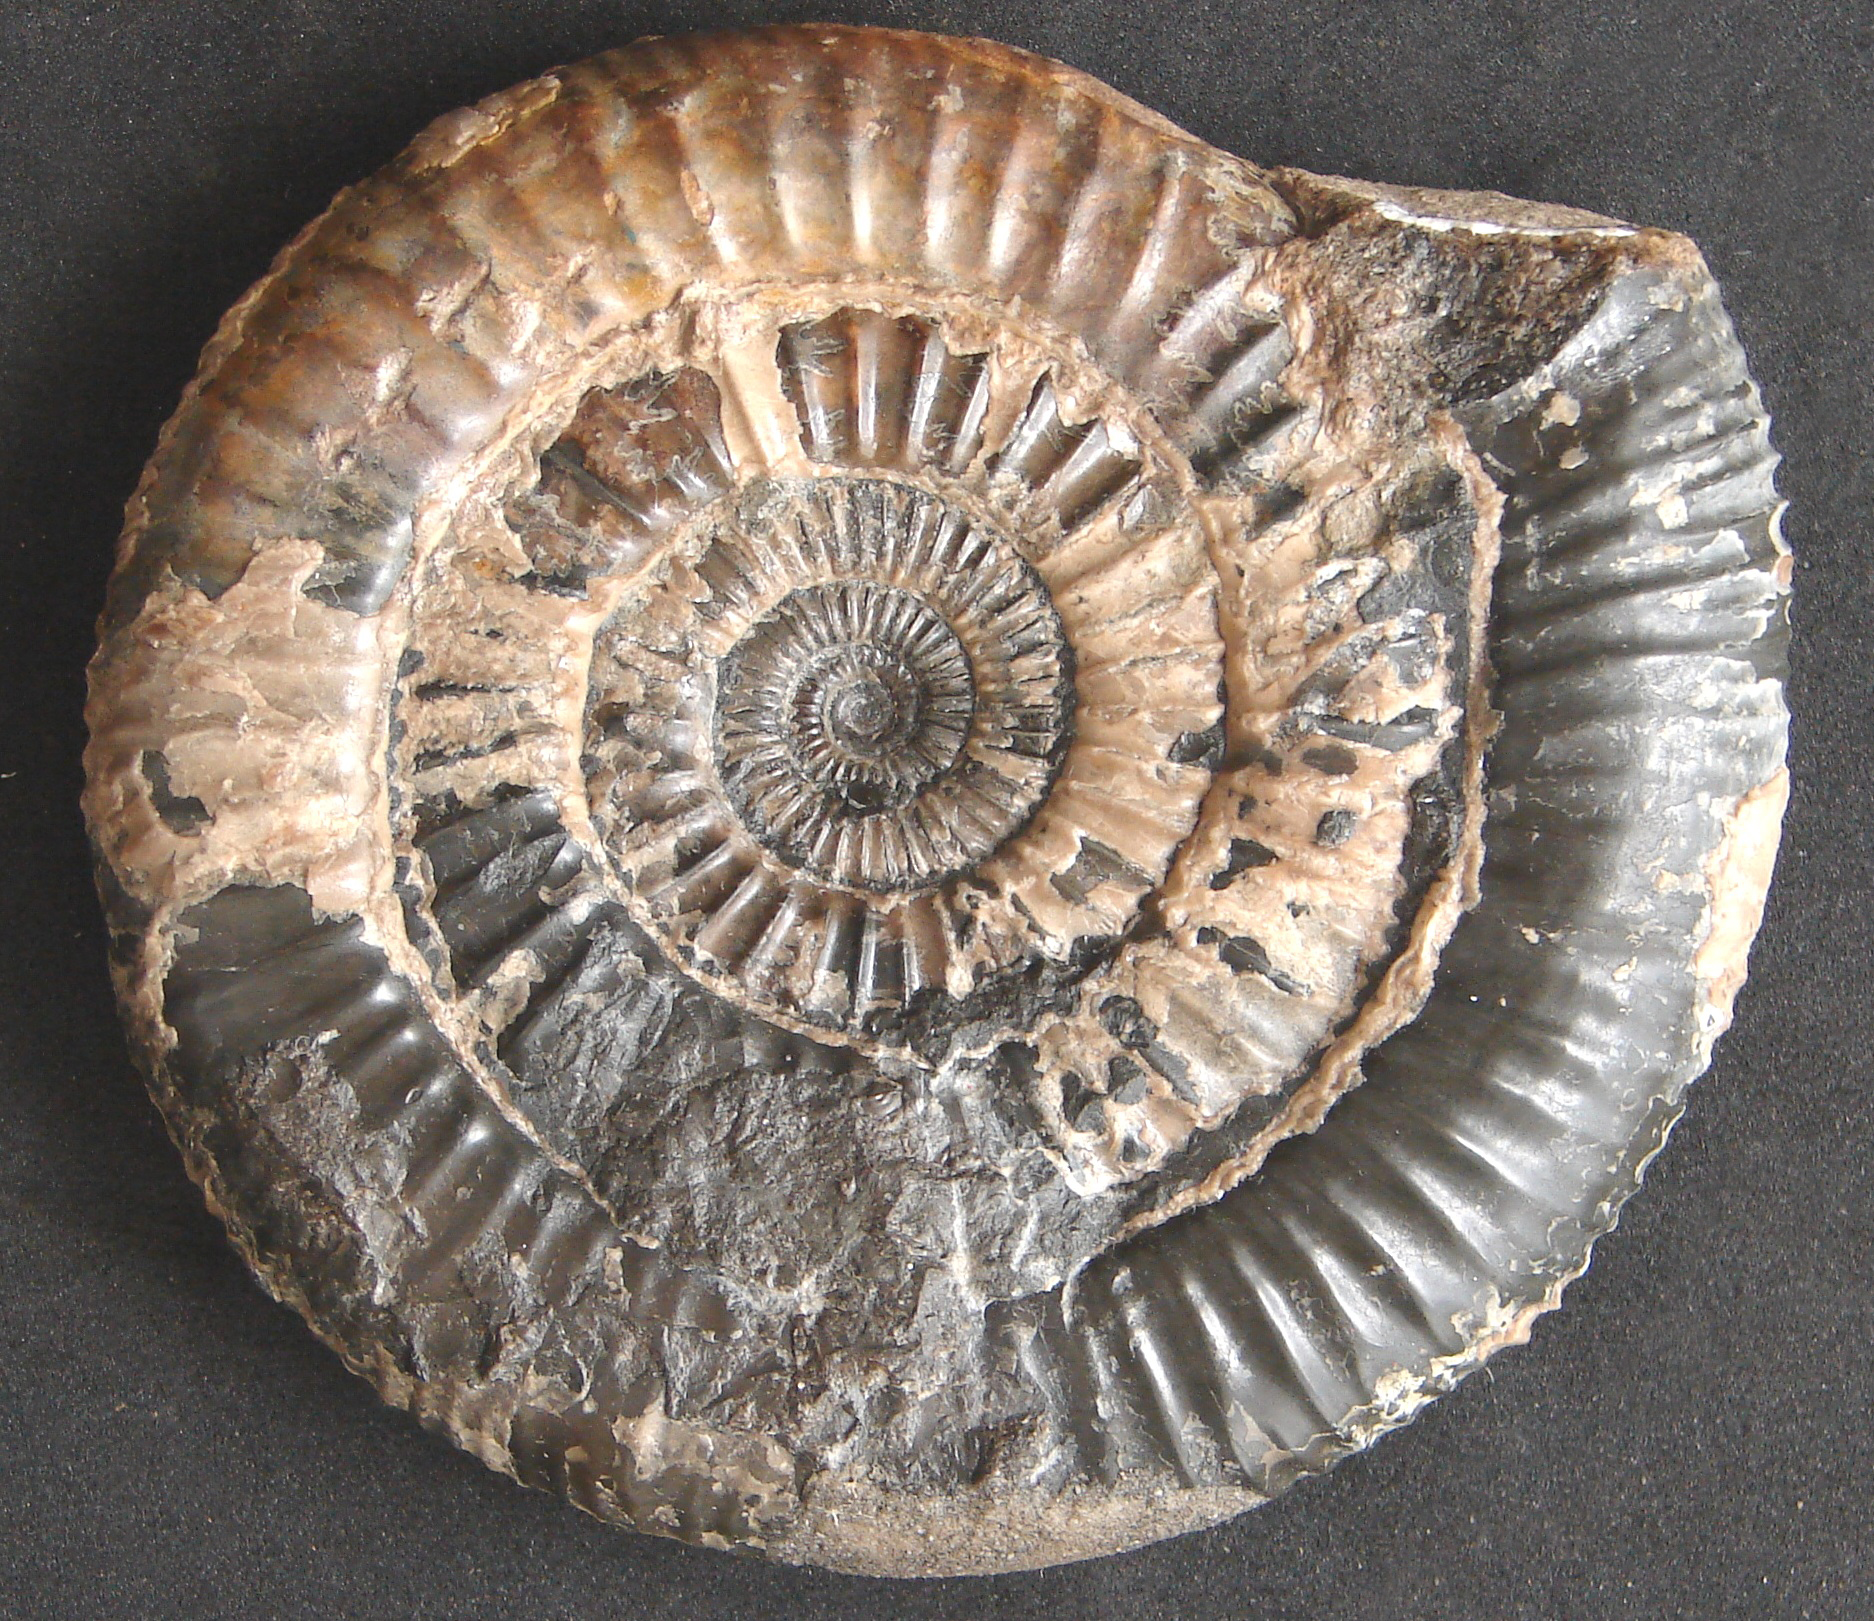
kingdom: Animalia
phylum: Mollusca
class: Cephalopoda
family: Dactylioceratidae
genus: Dactylioceras
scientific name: Dactylioceras athleticum
